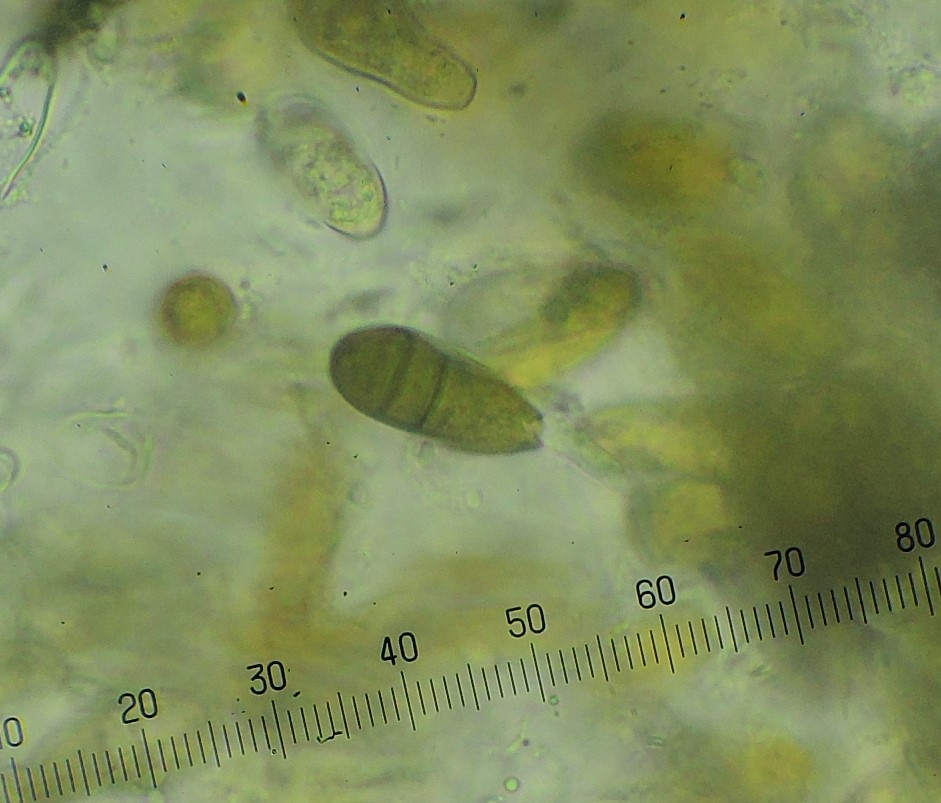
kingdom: Fungi
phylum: Ascomycota
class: Dothideomycetes
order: Botryosphaeriales
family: Botryosphaeriaceae
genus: Sphaeropsis
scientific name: Sphaeropsis sapinea
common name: Sphaeropsis blight
